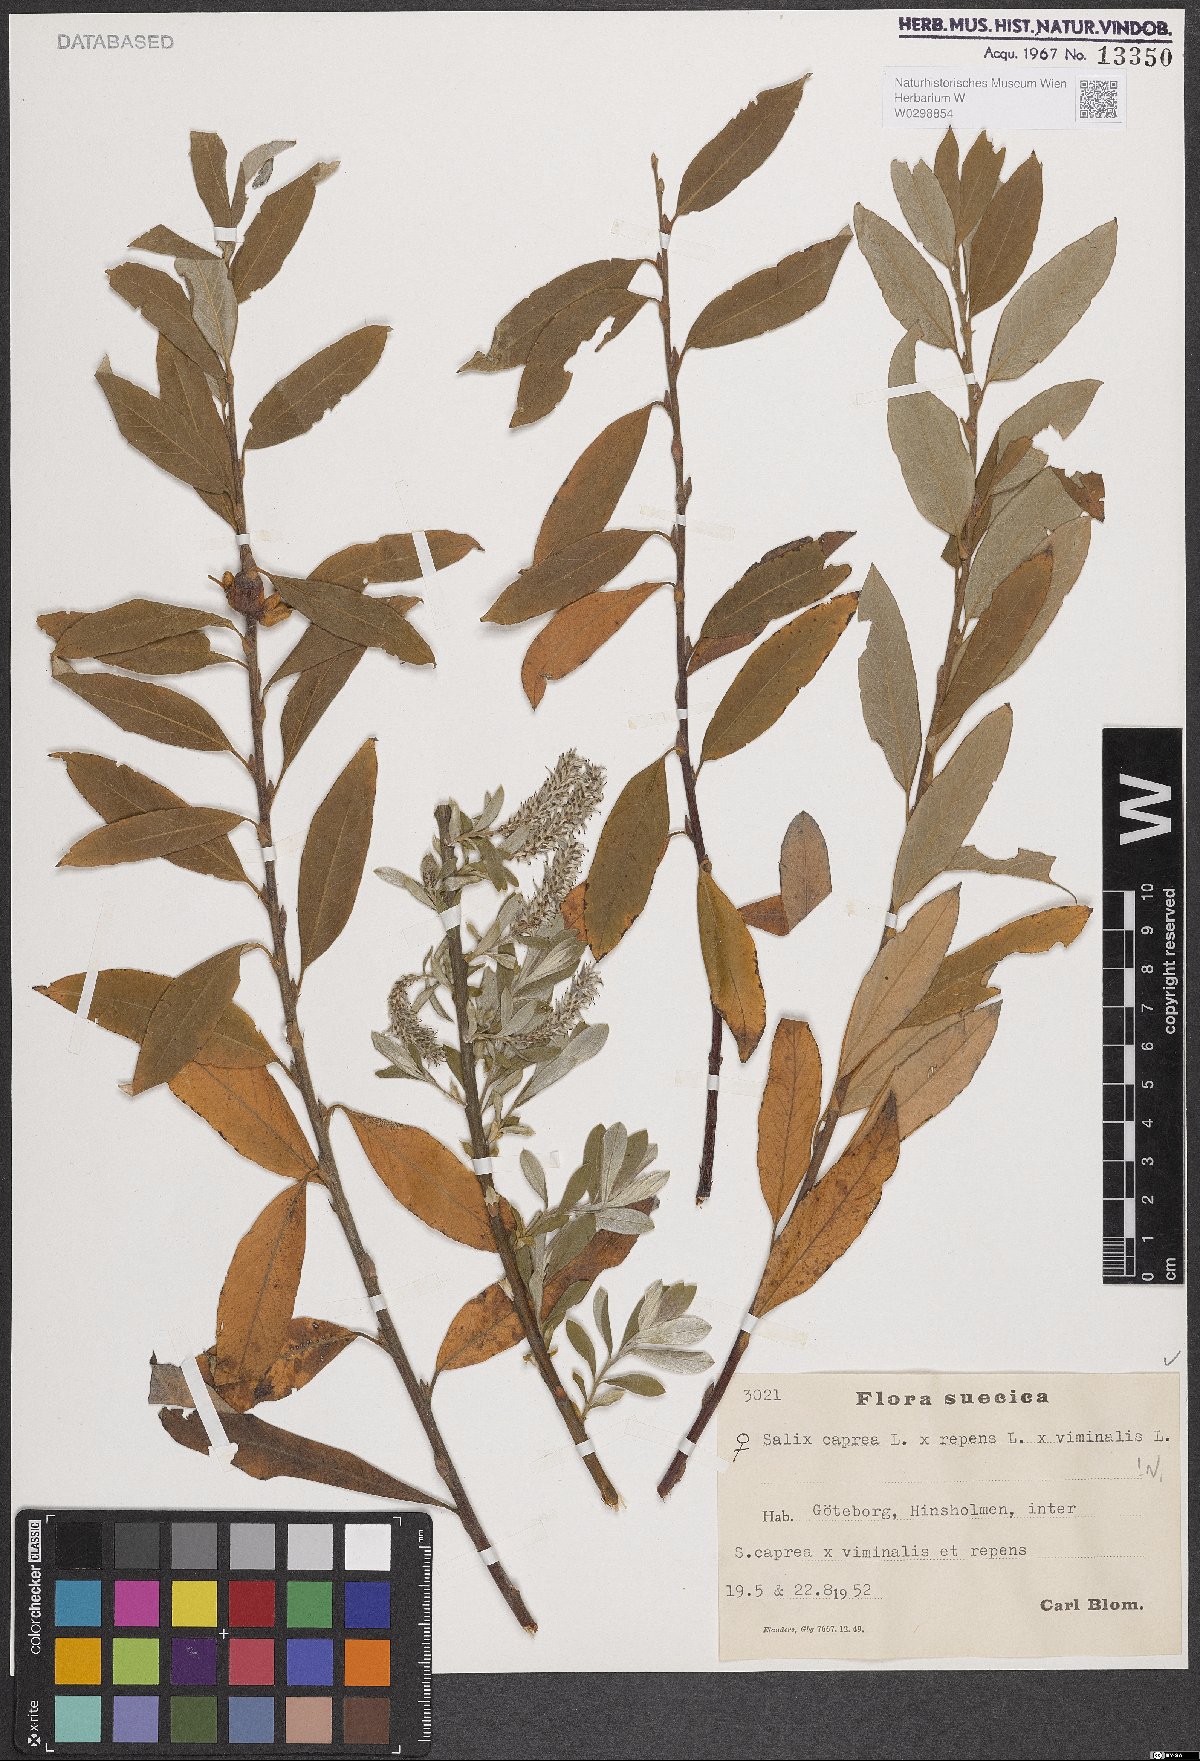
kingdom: Plantae
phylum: Tracheophyta
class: Magnoliopsida
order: Malpighiales
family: Salicaceae
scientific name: Salicaceae
